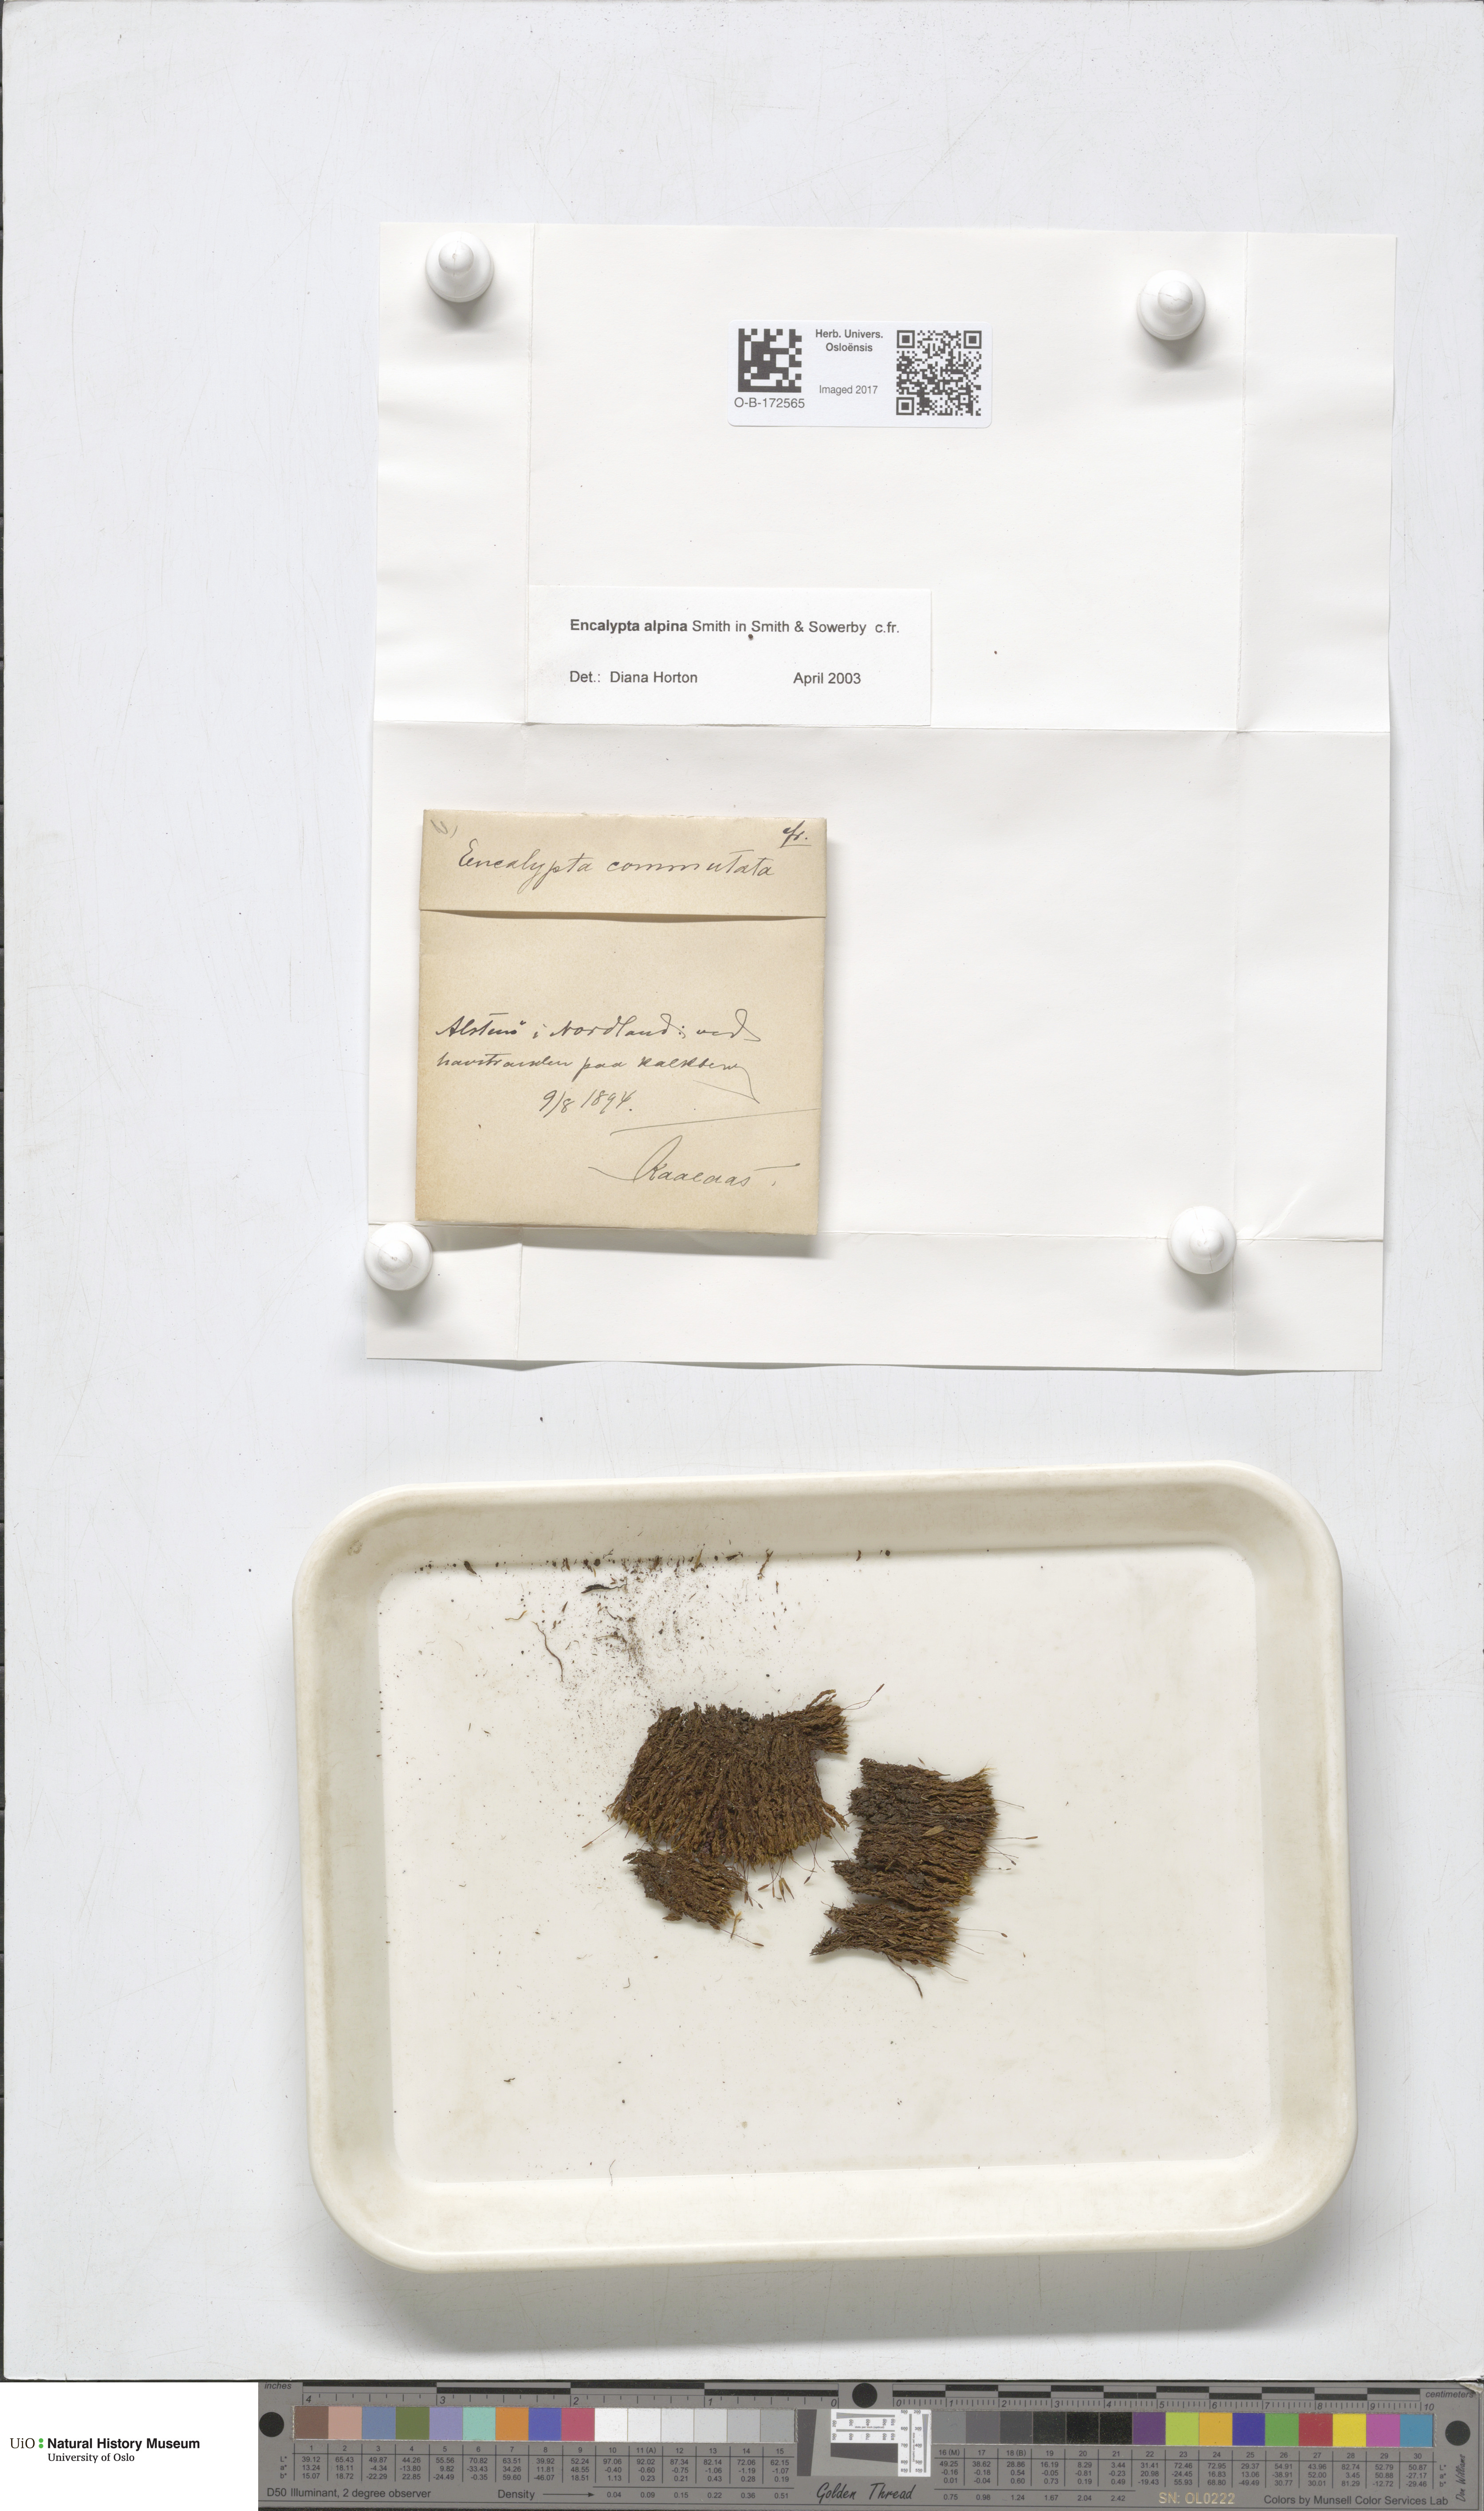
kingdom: Plantae
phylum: Bryophyta
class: Bryopsida
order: Encalyptales
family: Encalyptaceae
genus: Encalypta
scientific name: Encalypta alpina
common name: Alpine extinguisher-moss
